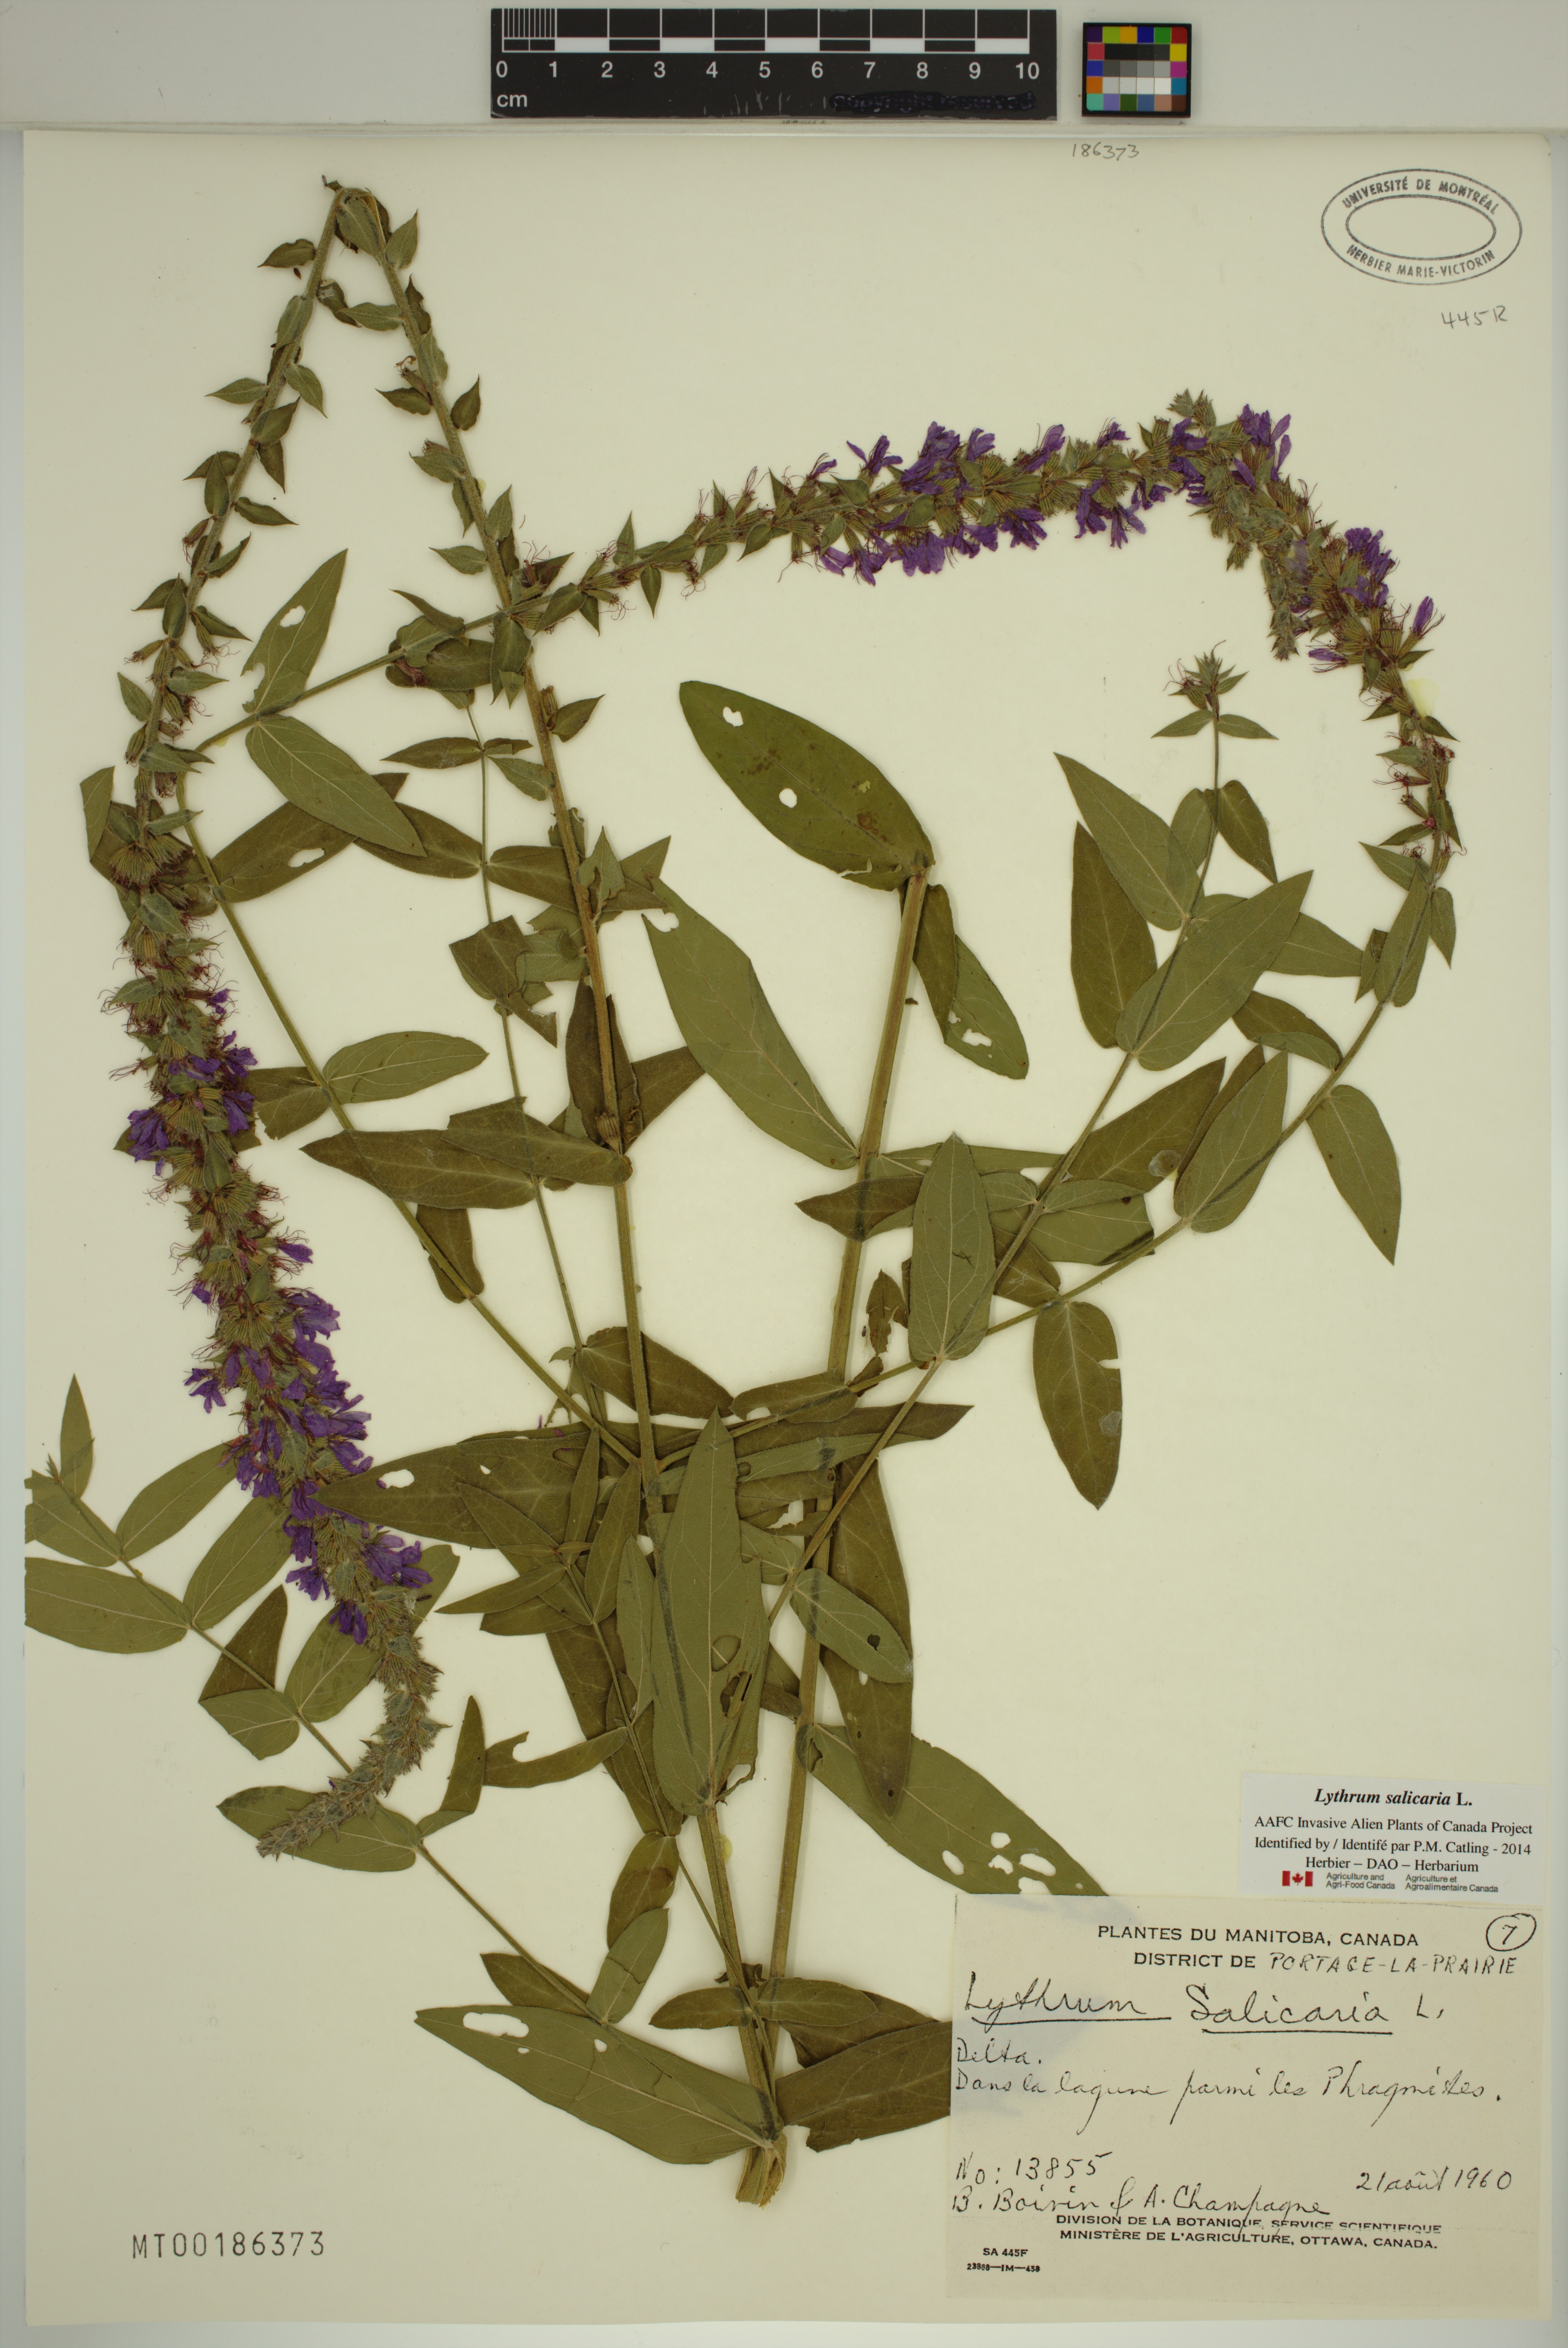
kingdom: Plantae
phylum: Tracheophyta
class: Magnoliopsida
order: Myrtales
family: Lythraceae
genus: Lythrum
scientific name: Lythrum salicaria
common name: Purple loosestrife
